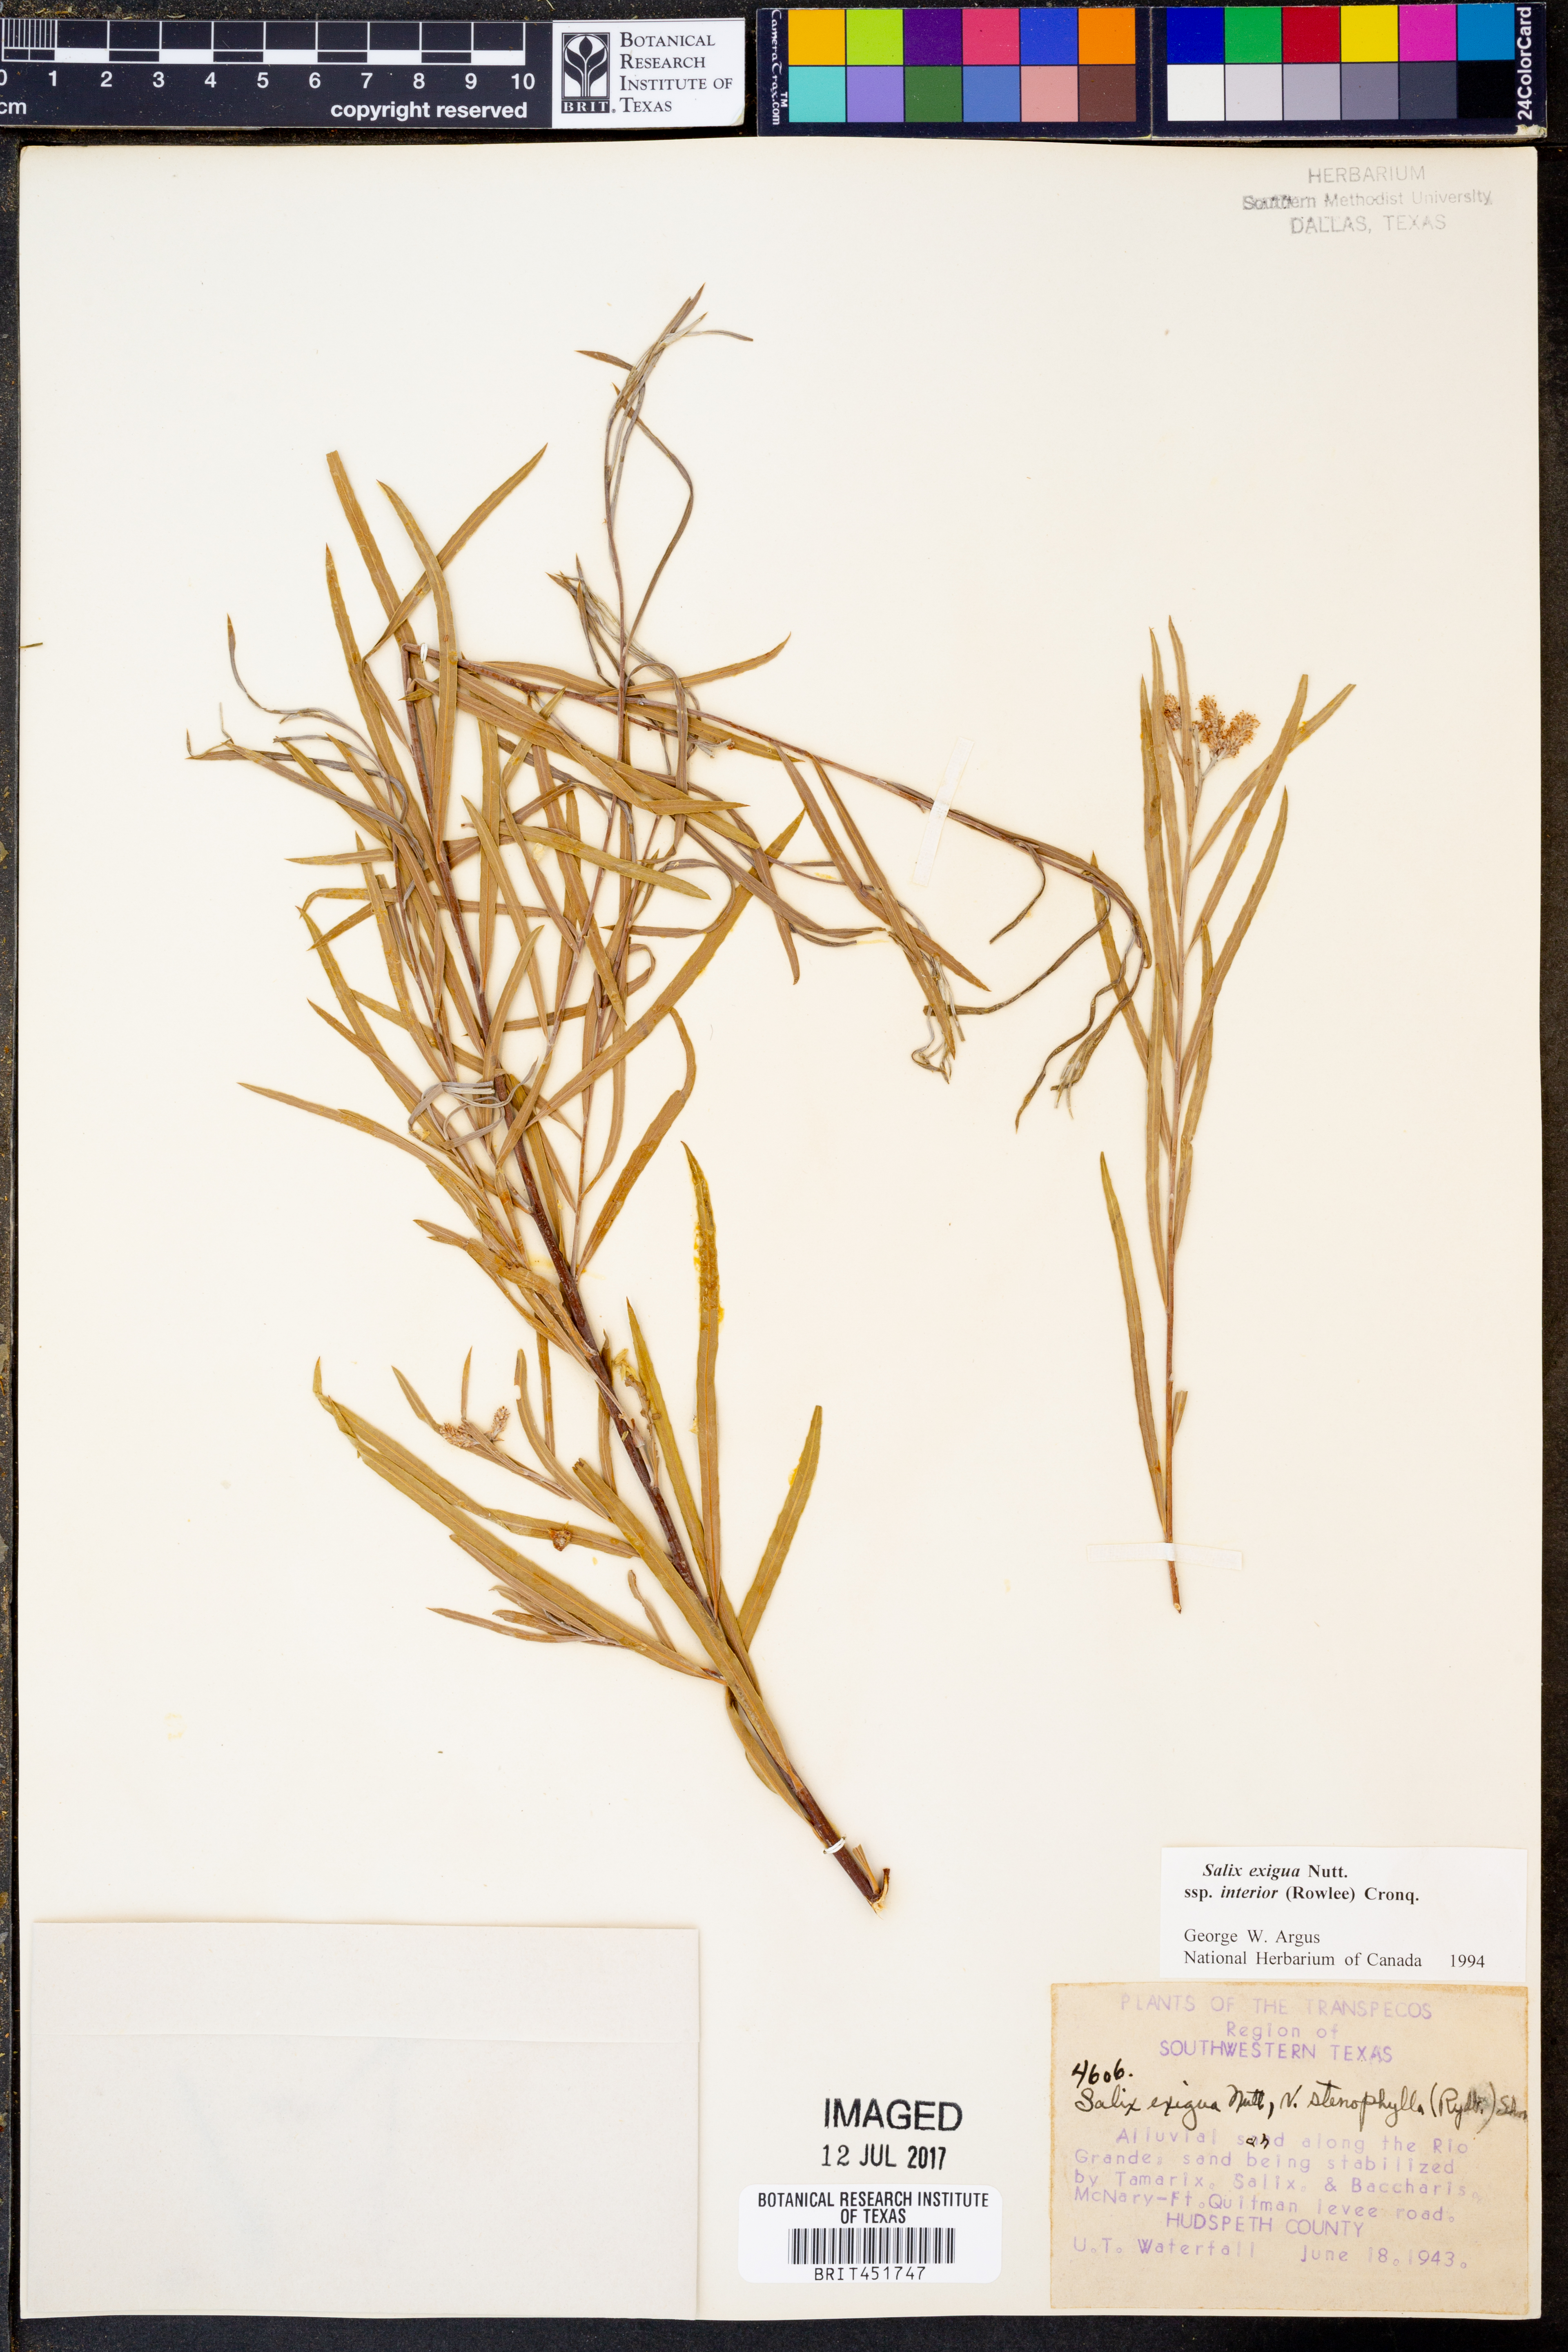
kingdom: Plantae
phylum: Tracheophyta
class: Magnoliopsida
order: Malpighiales
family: Salicaceae
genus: Salix
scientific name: Salix interior
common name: Sandbar willow
